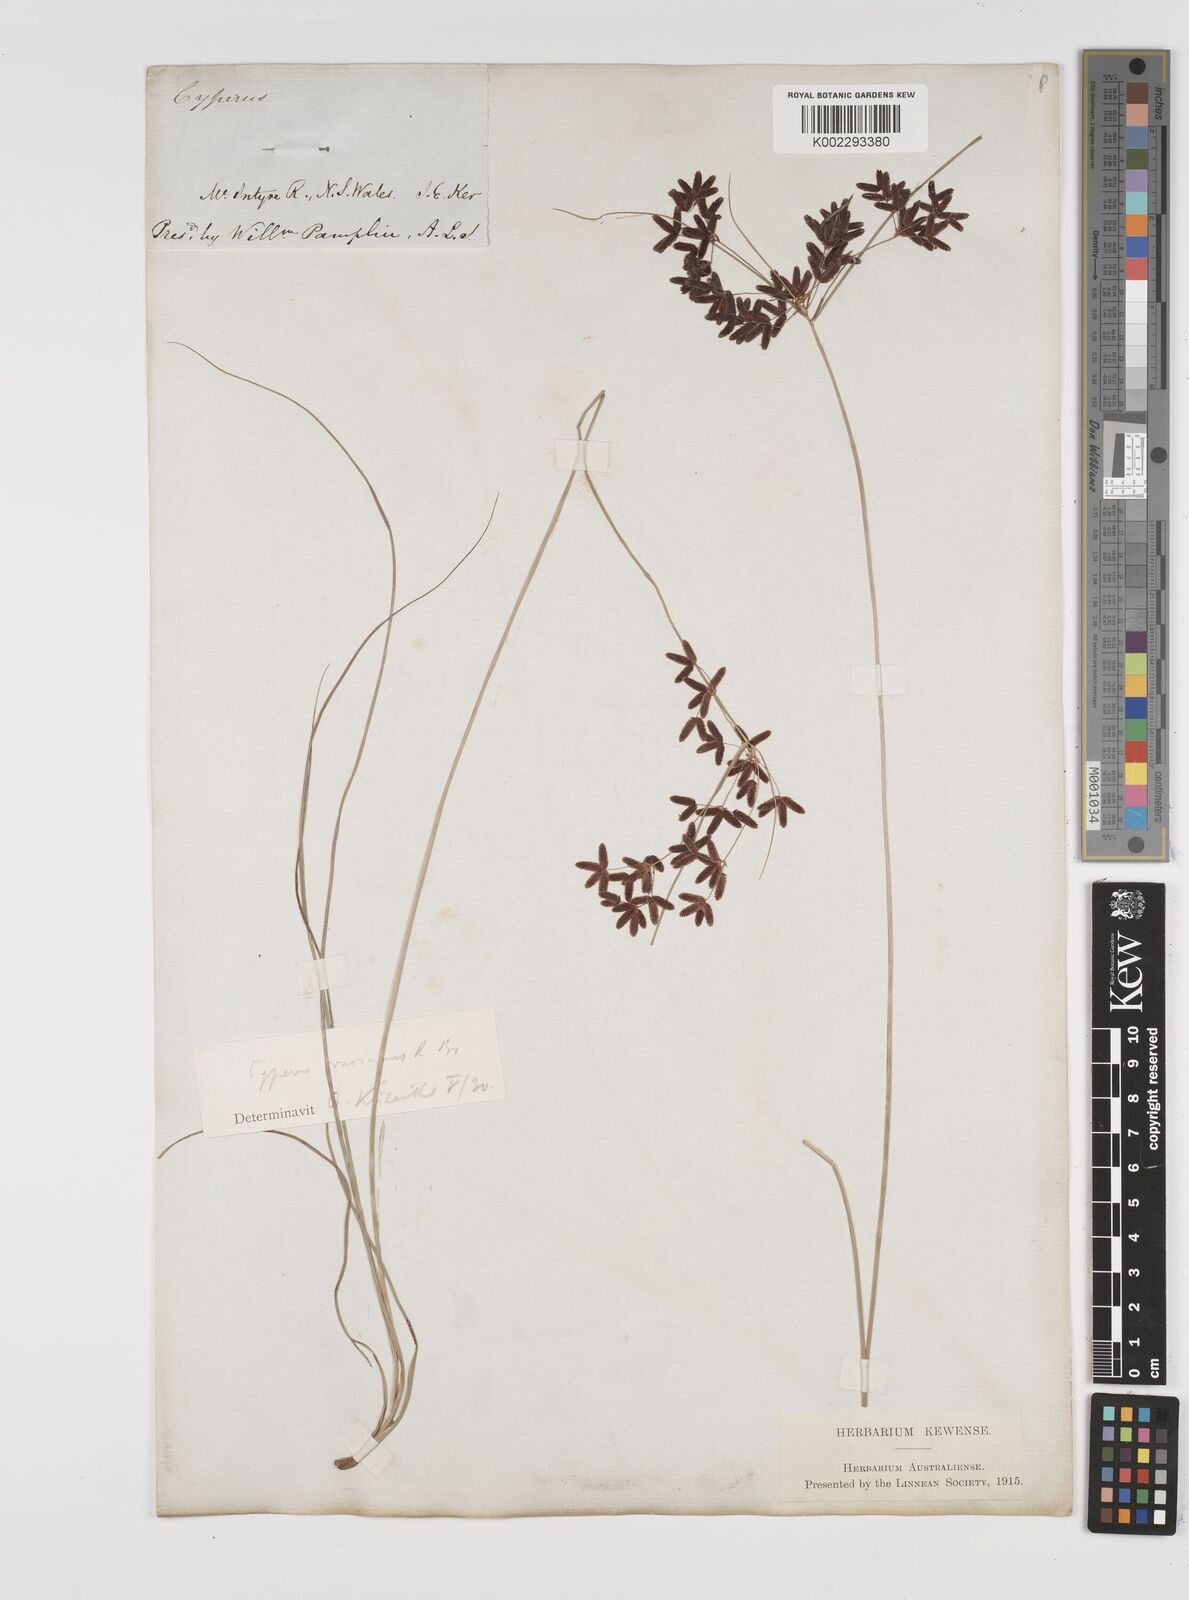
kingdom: Plantae
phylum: Tracheophyta
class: Liliopsida
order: Poales
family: Cyperaceae
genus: Cyperus
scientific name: Cyperus concinnus
